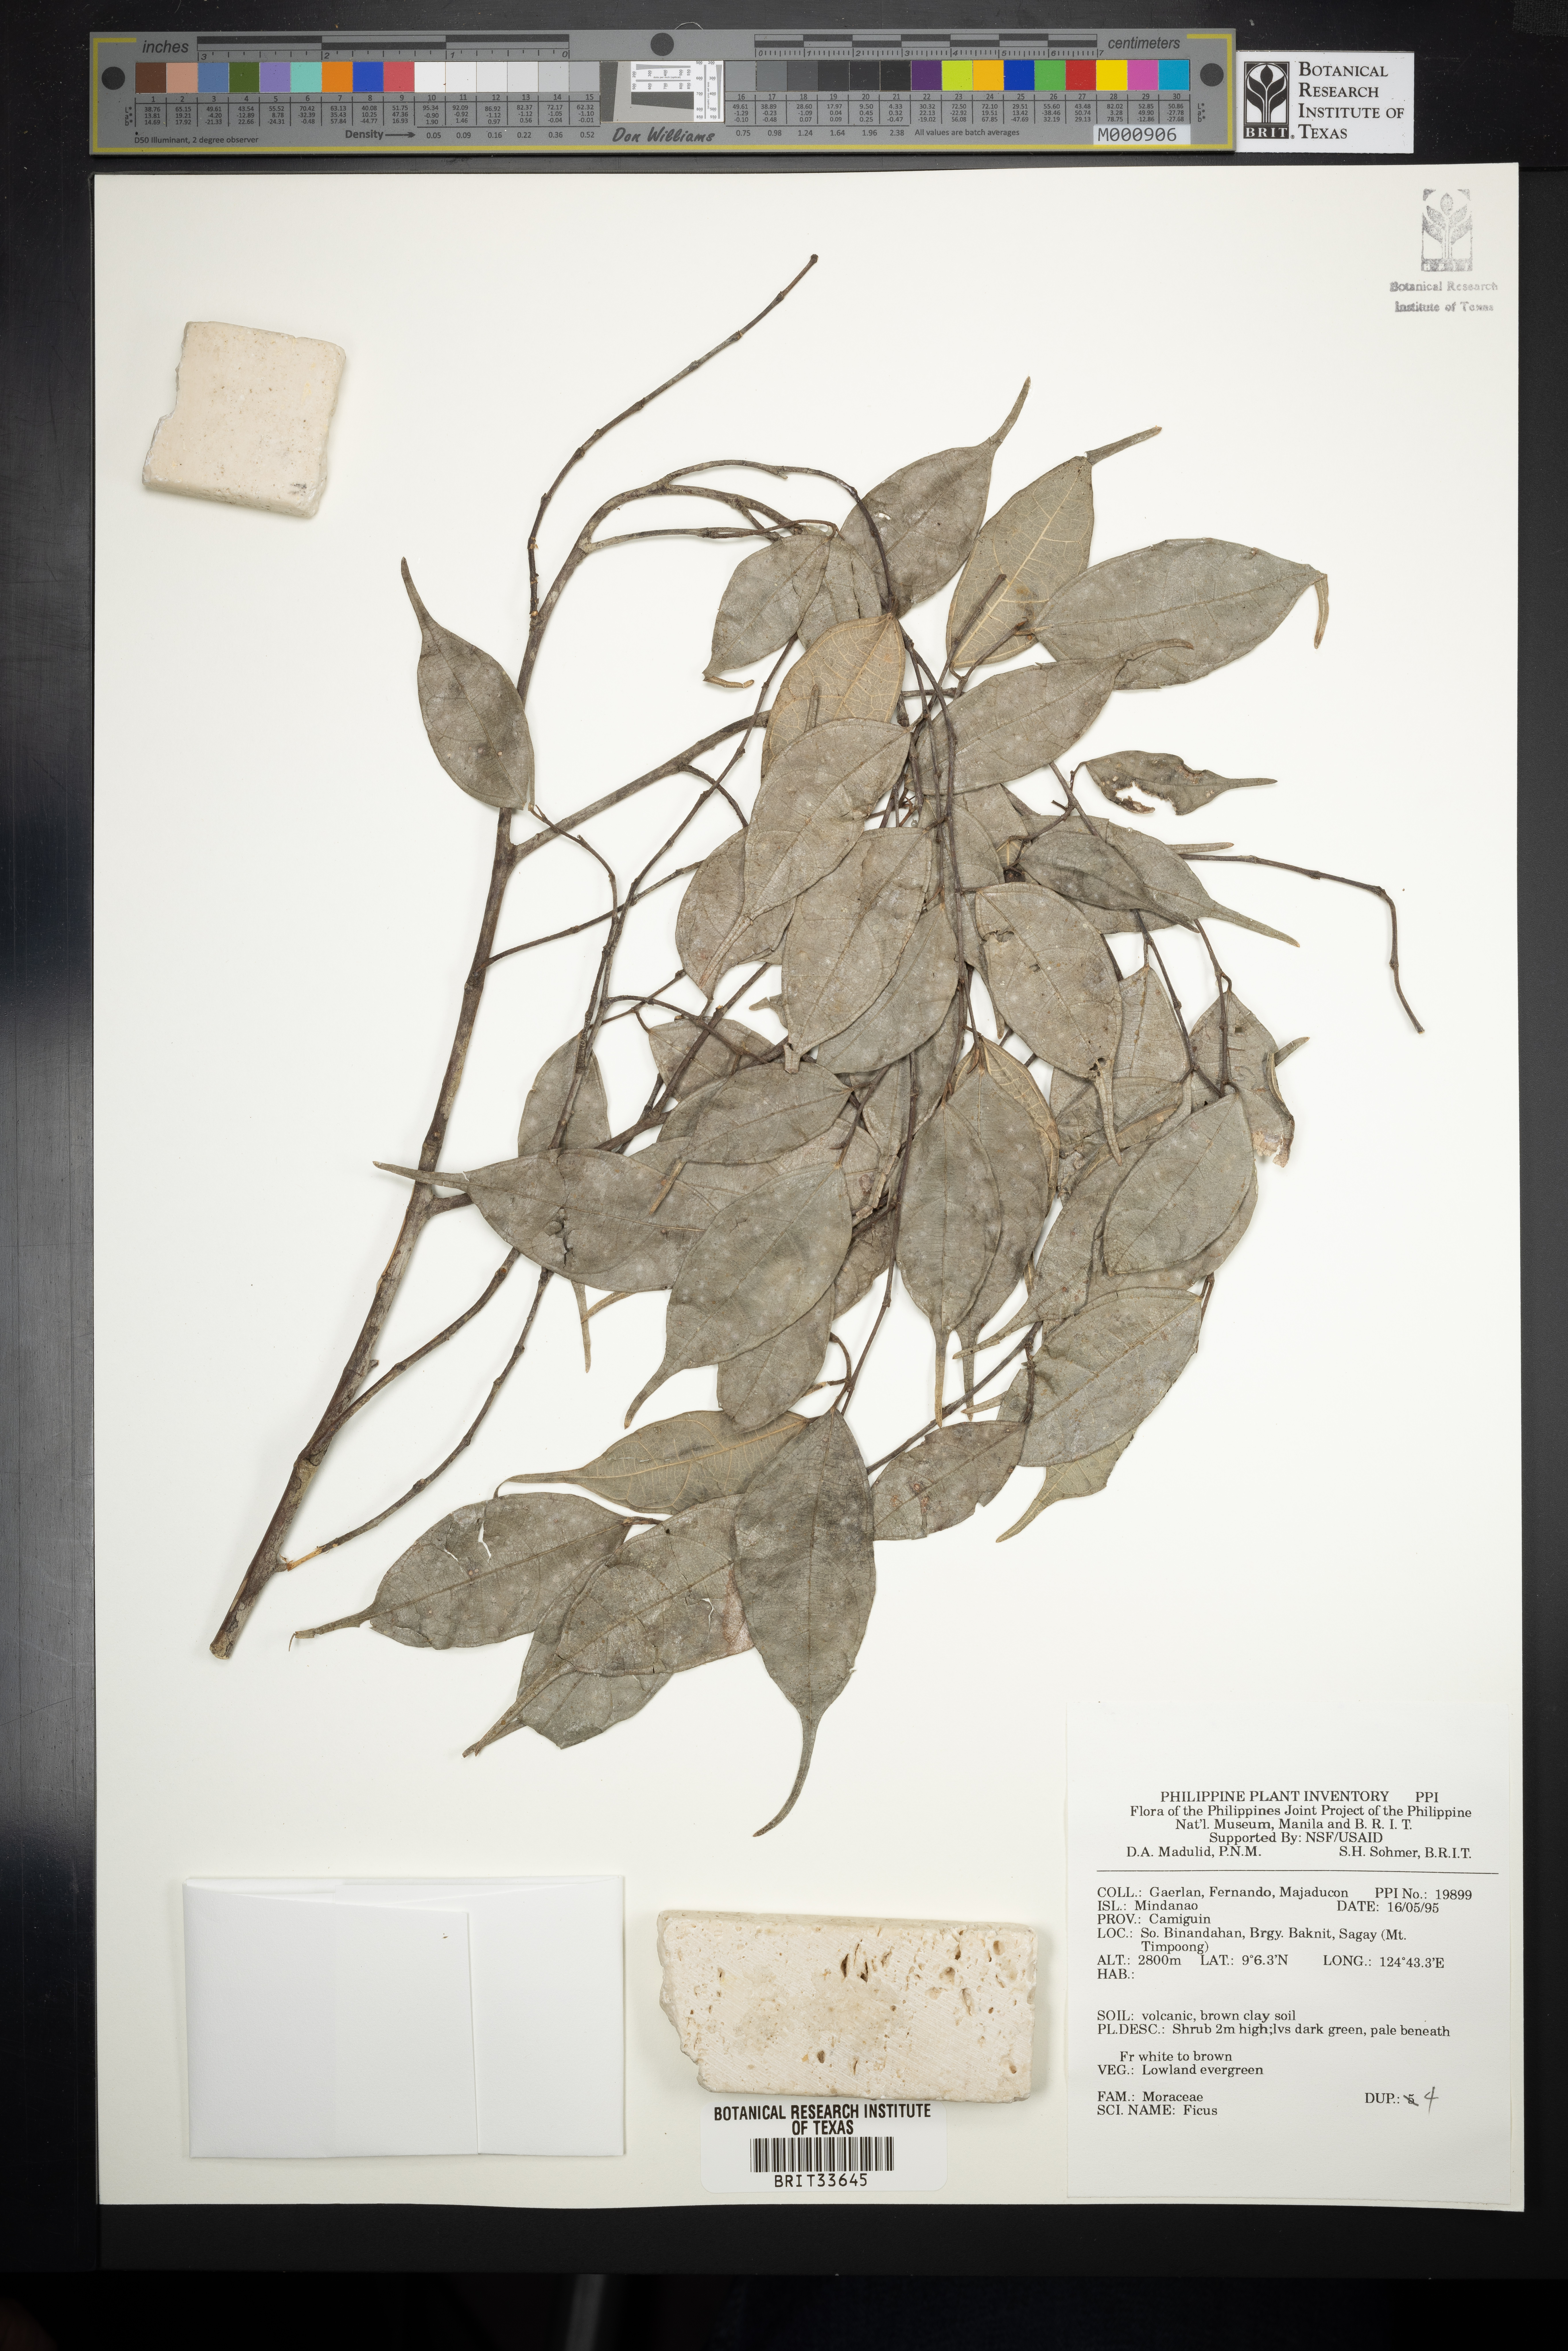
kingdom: Plantae
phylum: Tracheophyta
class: Magnoliopsida
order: Rosales
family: Moraceae
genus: Ficus
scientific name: Ficus
